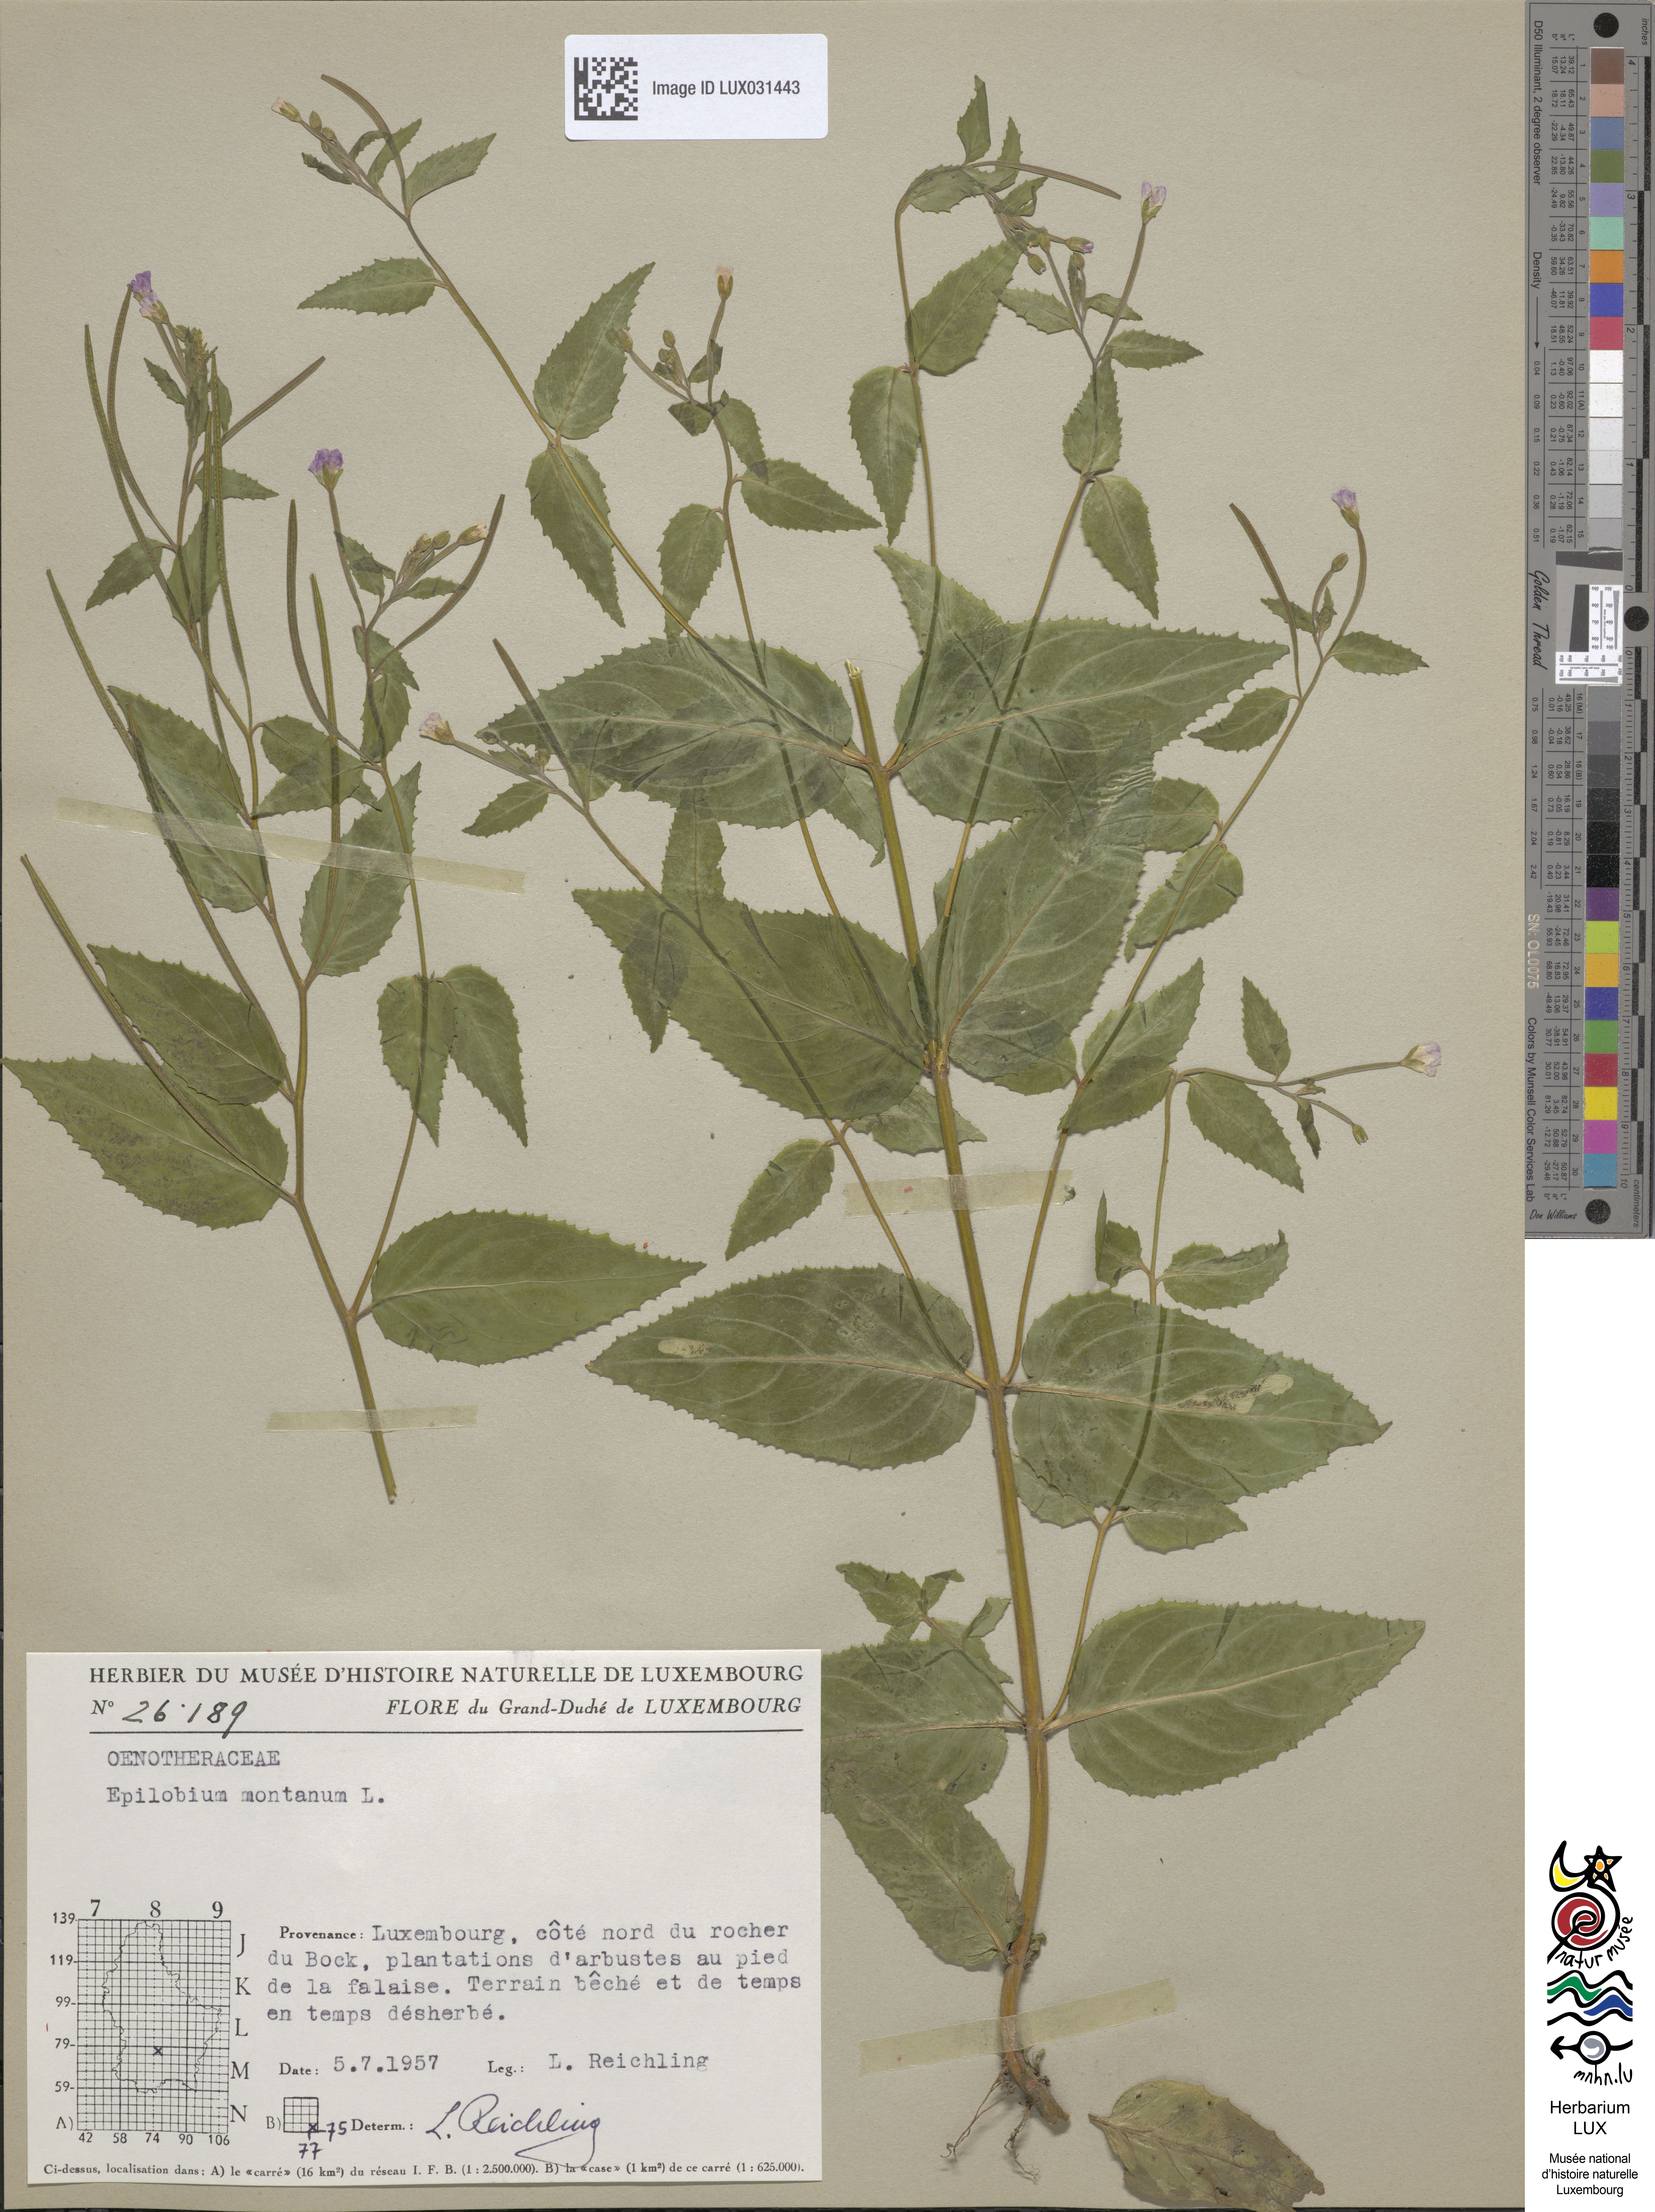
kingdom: Plantae
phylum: Tracheophyta
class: Magnoliopsida
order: Myrtales
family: Onagraceae
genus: Epilobium
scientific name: Epilobium montanum
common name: Broad-leaved willowherb
